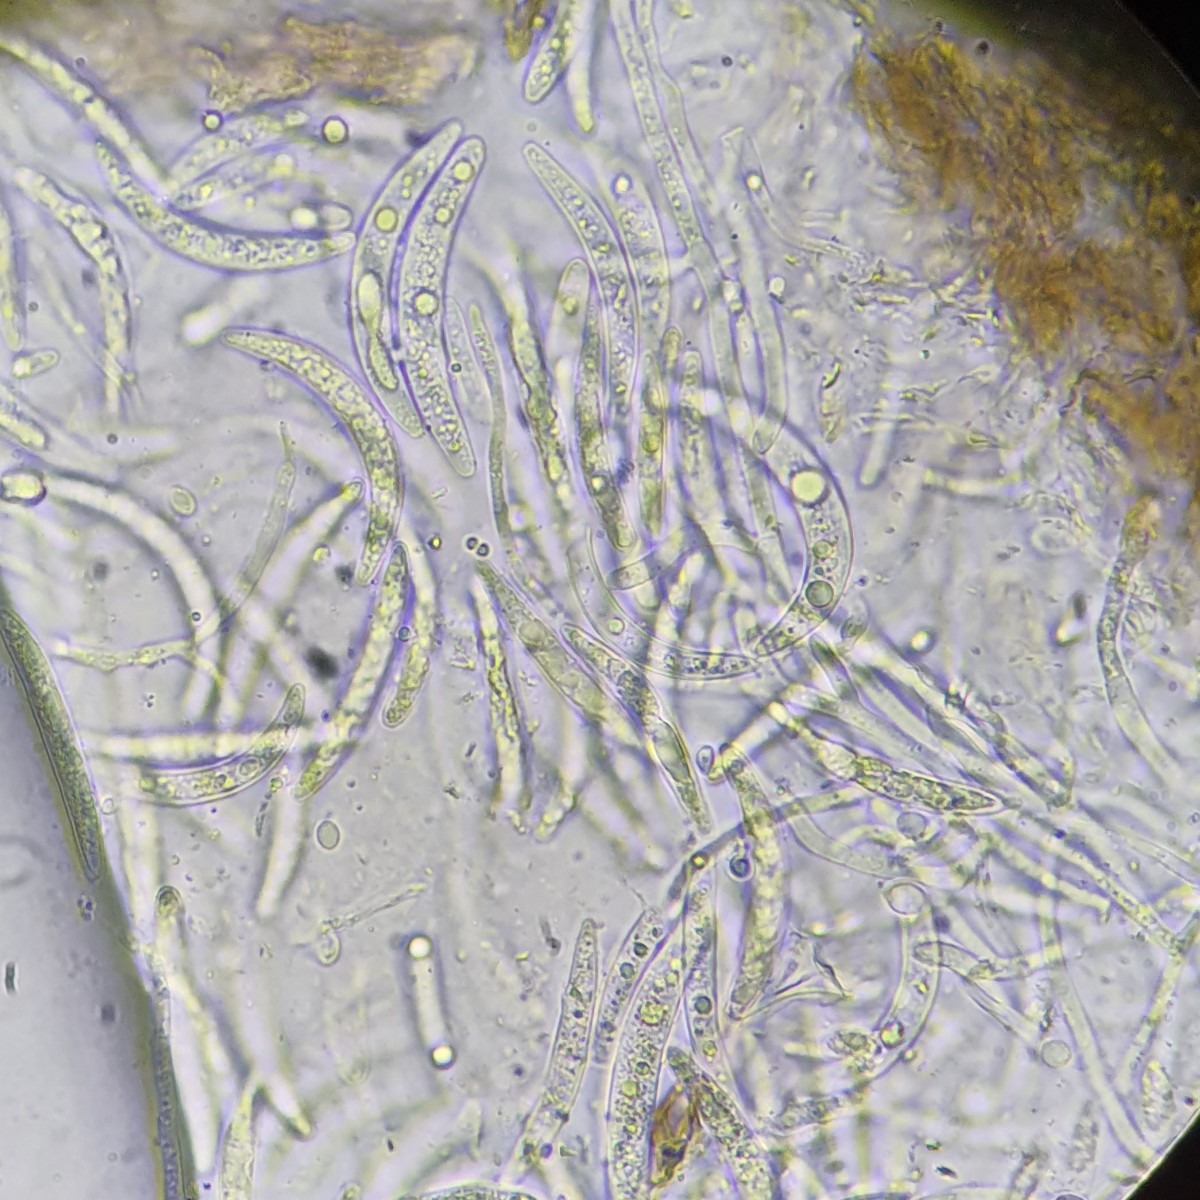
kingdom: Fungi
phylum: Ascomycota
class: Sordariomycetes
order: Diaporthales
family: Gnomoniaceae
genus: Cryptosporella
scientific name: Cryptosporella suffusa
